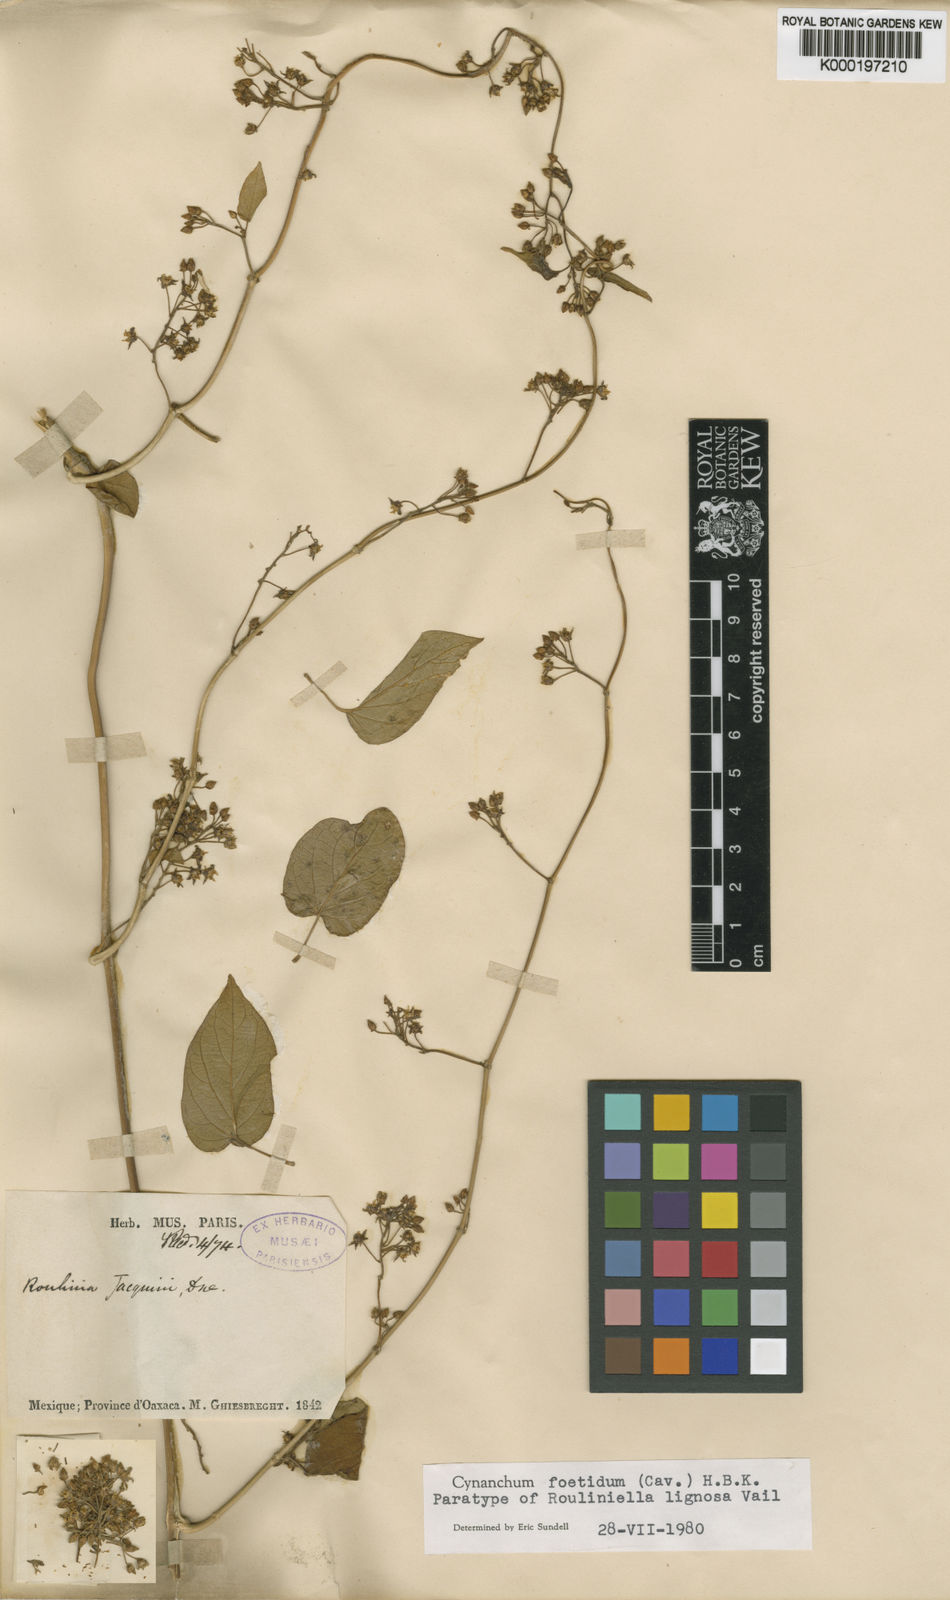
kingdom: Plantae
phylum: Tracheophyta
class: Magnoliopsida
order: Gentianales
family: Apocynaceae
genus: Cynanchum
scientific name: Cynanchum foetidum
